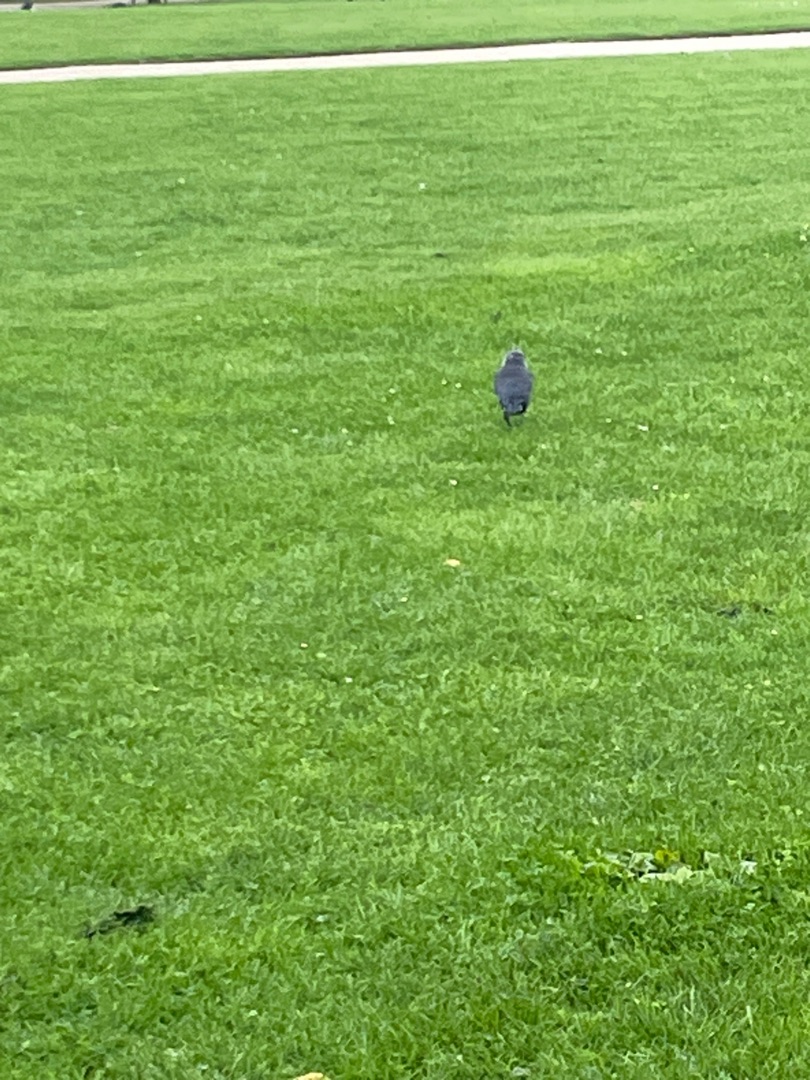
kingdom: Animalia
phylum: Chordata
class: Aves
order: Passeriformes
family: Corvidae
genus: Coloeus
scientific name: Coloeus monedula
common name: Allike
